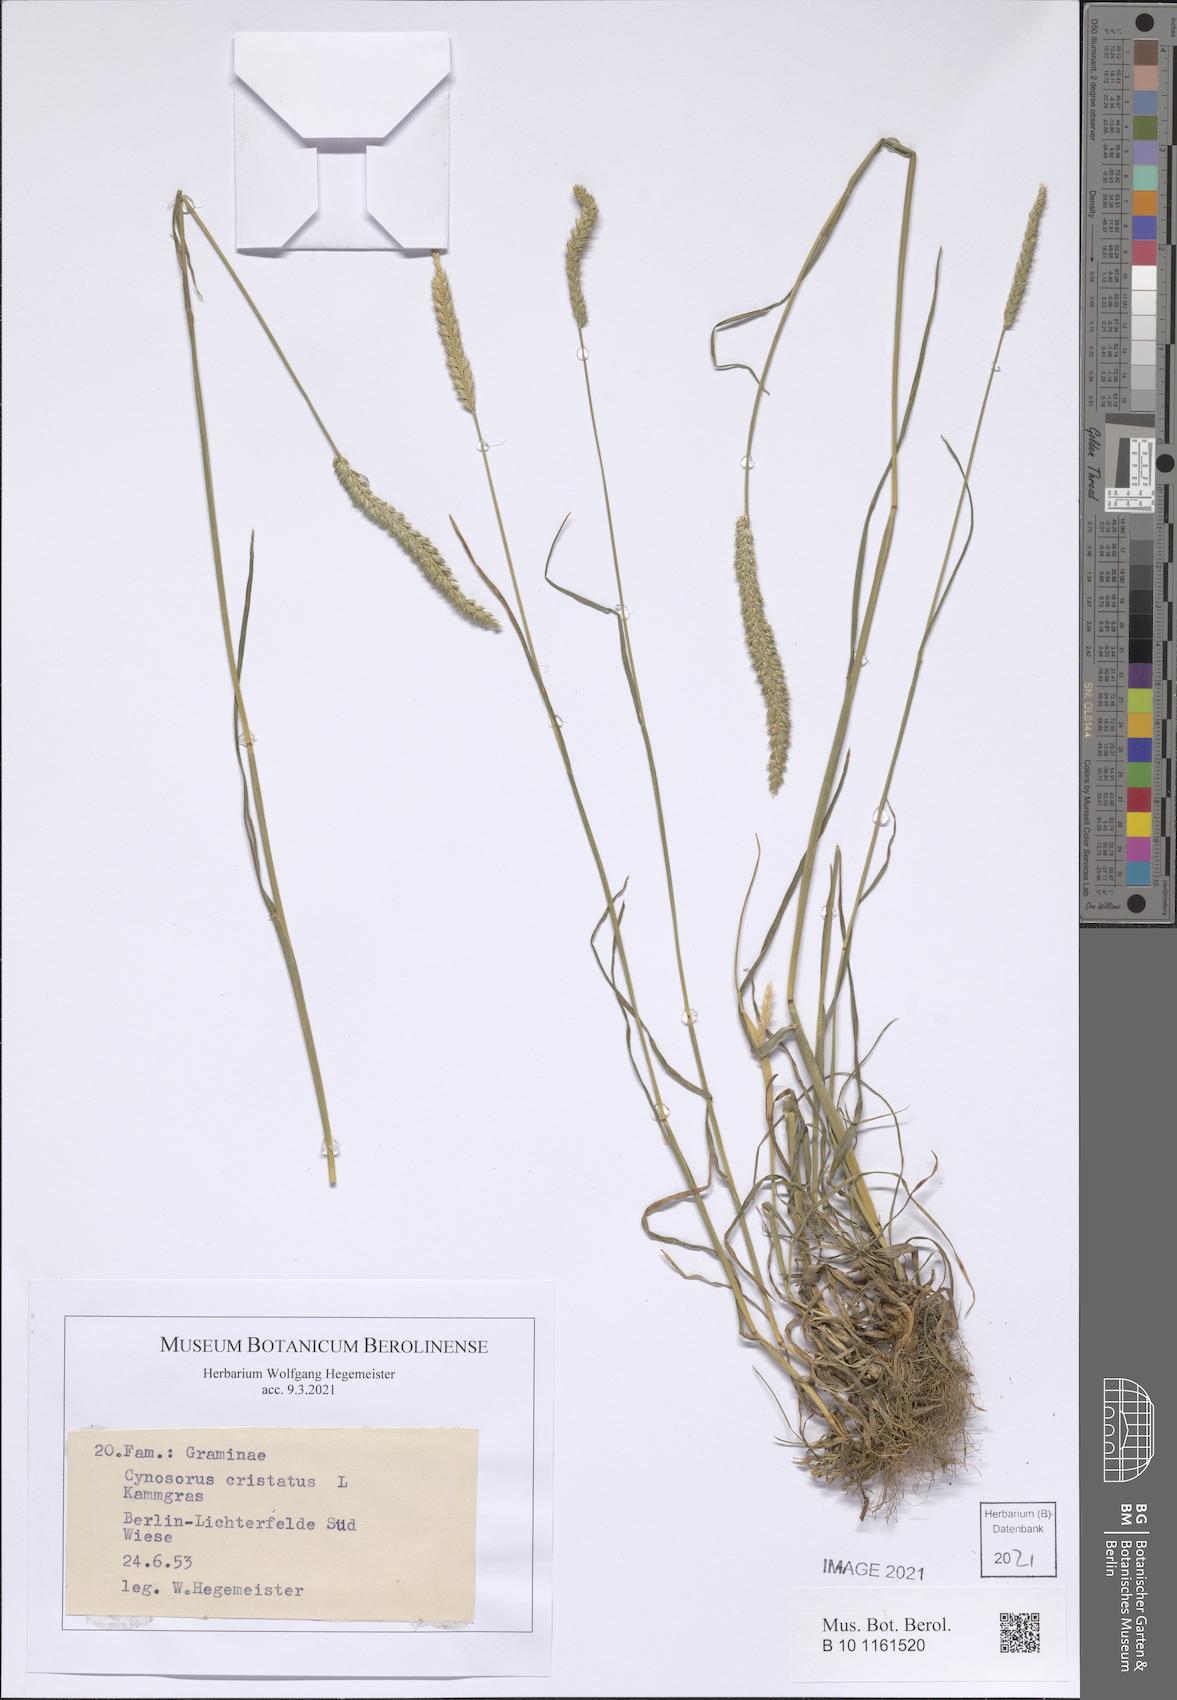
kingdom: Plantae
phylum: Tracheophyta
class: Liliopsida
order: Poales
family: Poaceae
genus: Cynosurus
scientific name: Cynosurus cristatus
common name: Crested dog's-tail
